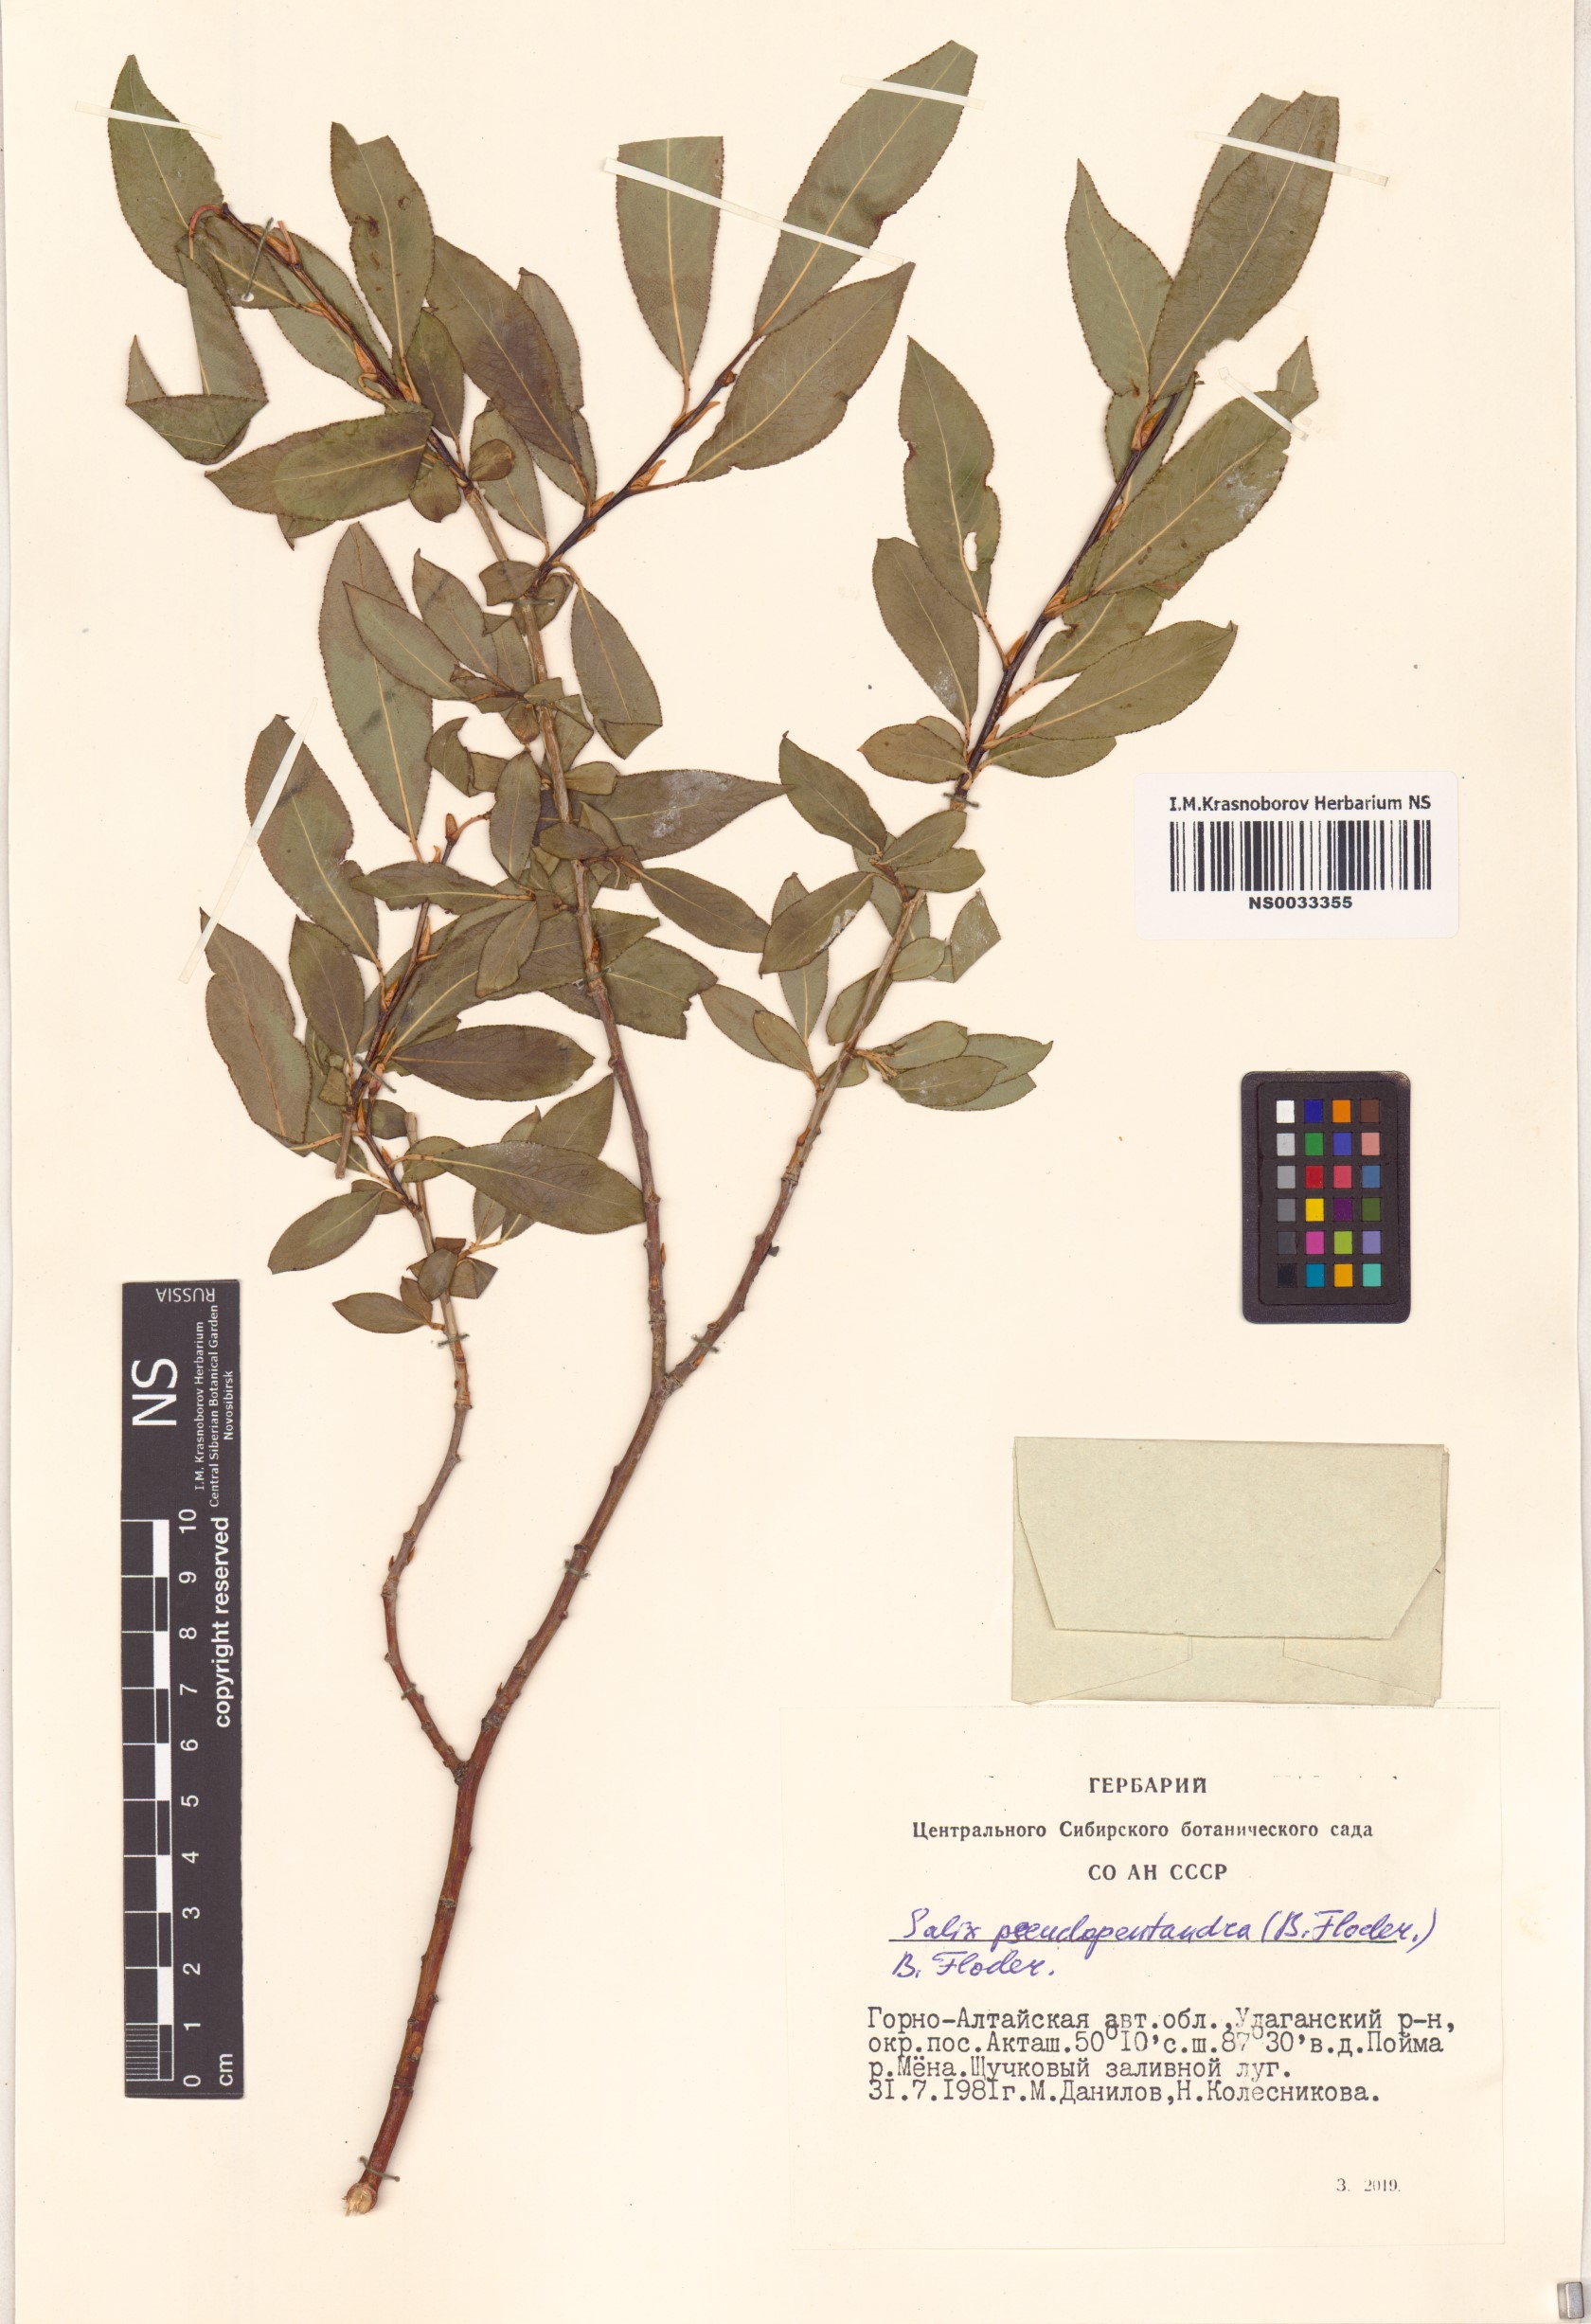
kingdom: Plantae
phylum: Tracheophyta
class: Magnoliopsida
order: Malpighiales
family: Salicaceae
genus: Salix
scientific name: Salix pseudopentandra
